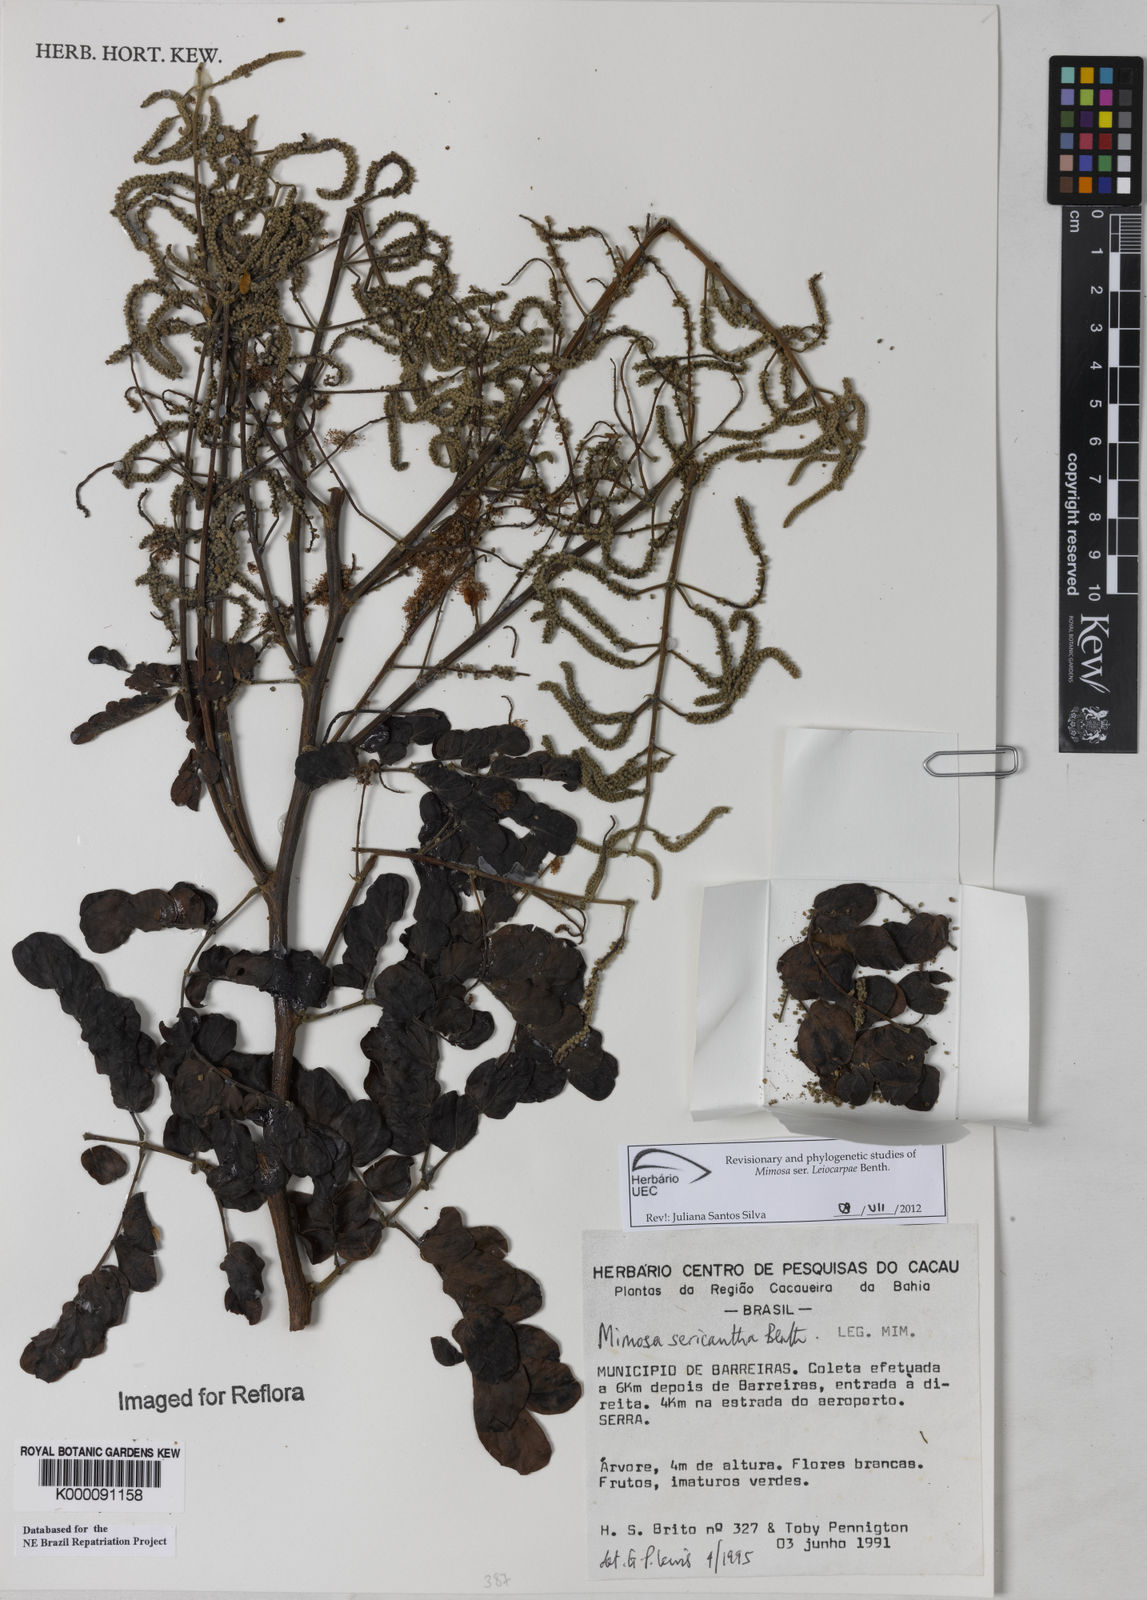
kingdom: Plantae
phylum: Tracheophyta
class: Magnoliopsida
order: Fabales
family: Fabaceae
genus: Mimosa
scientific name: Mimosa sericantha
